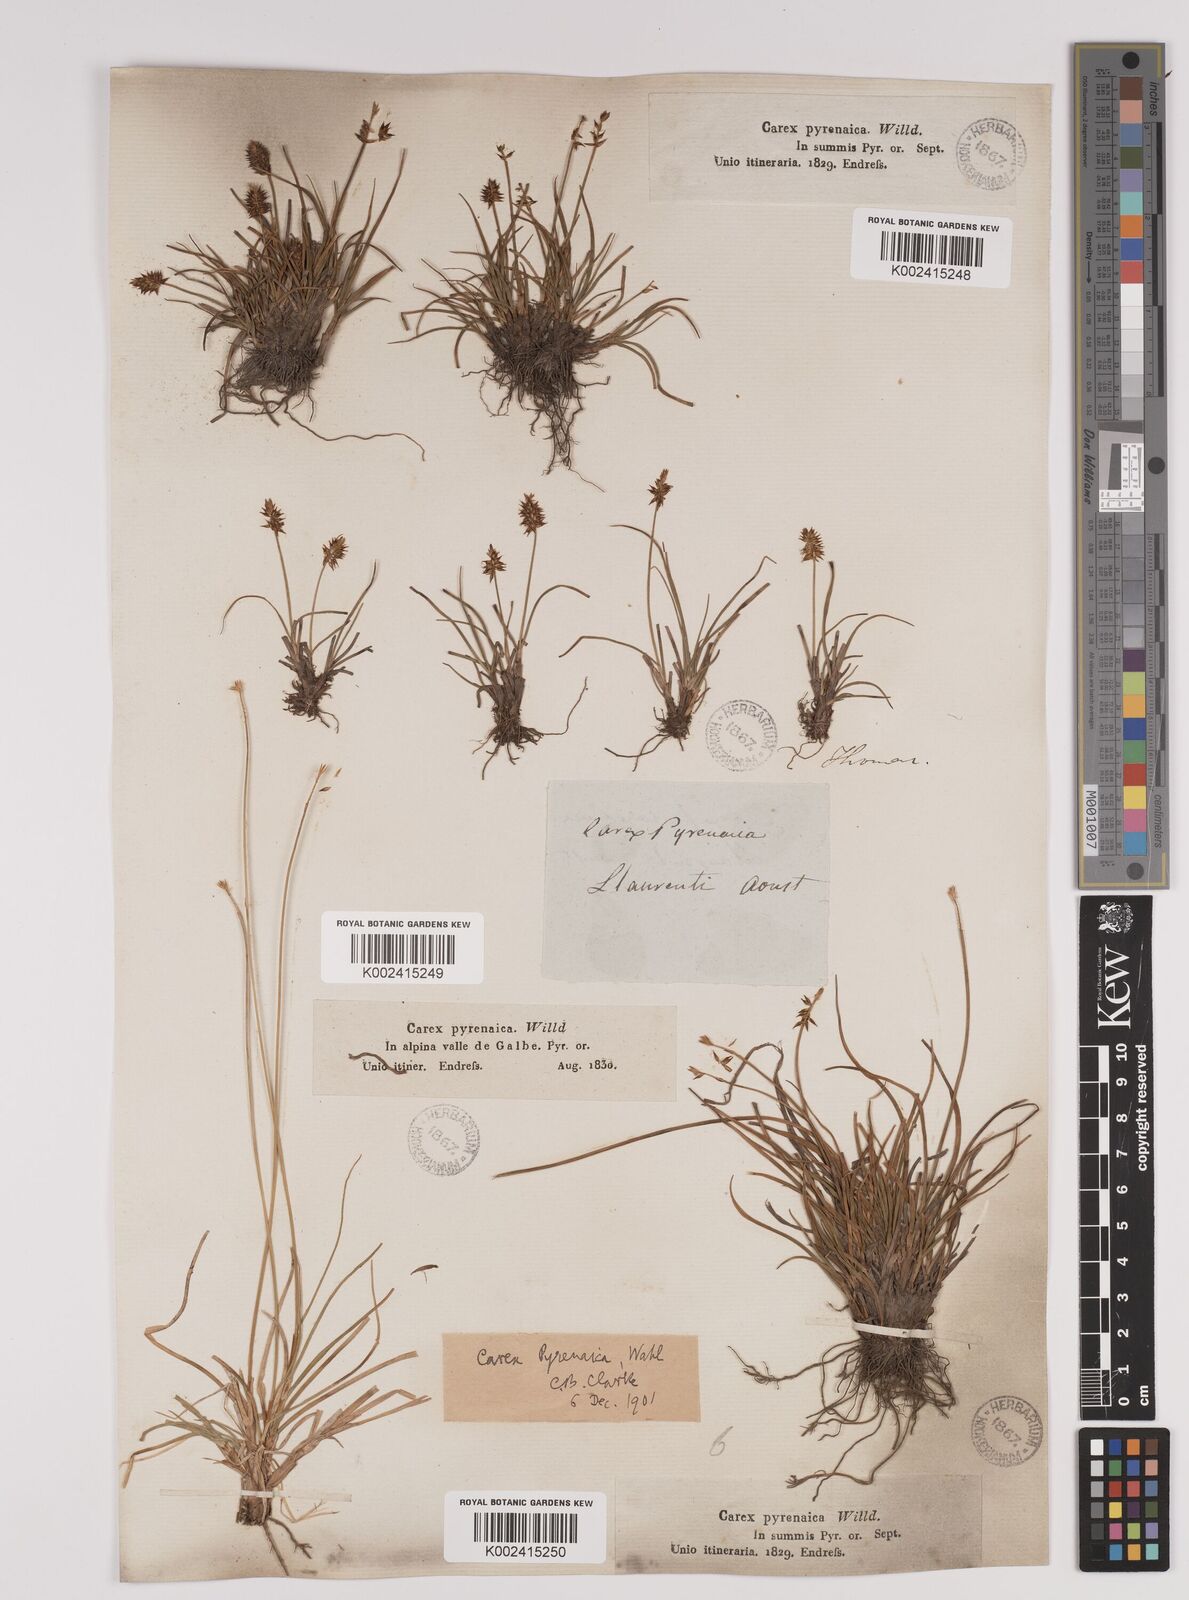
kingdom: Plantae
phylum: Tracheophyta
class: Liliopsida
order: Poales
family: Cyperaceae
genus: Carex
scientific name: Carex acicularis
